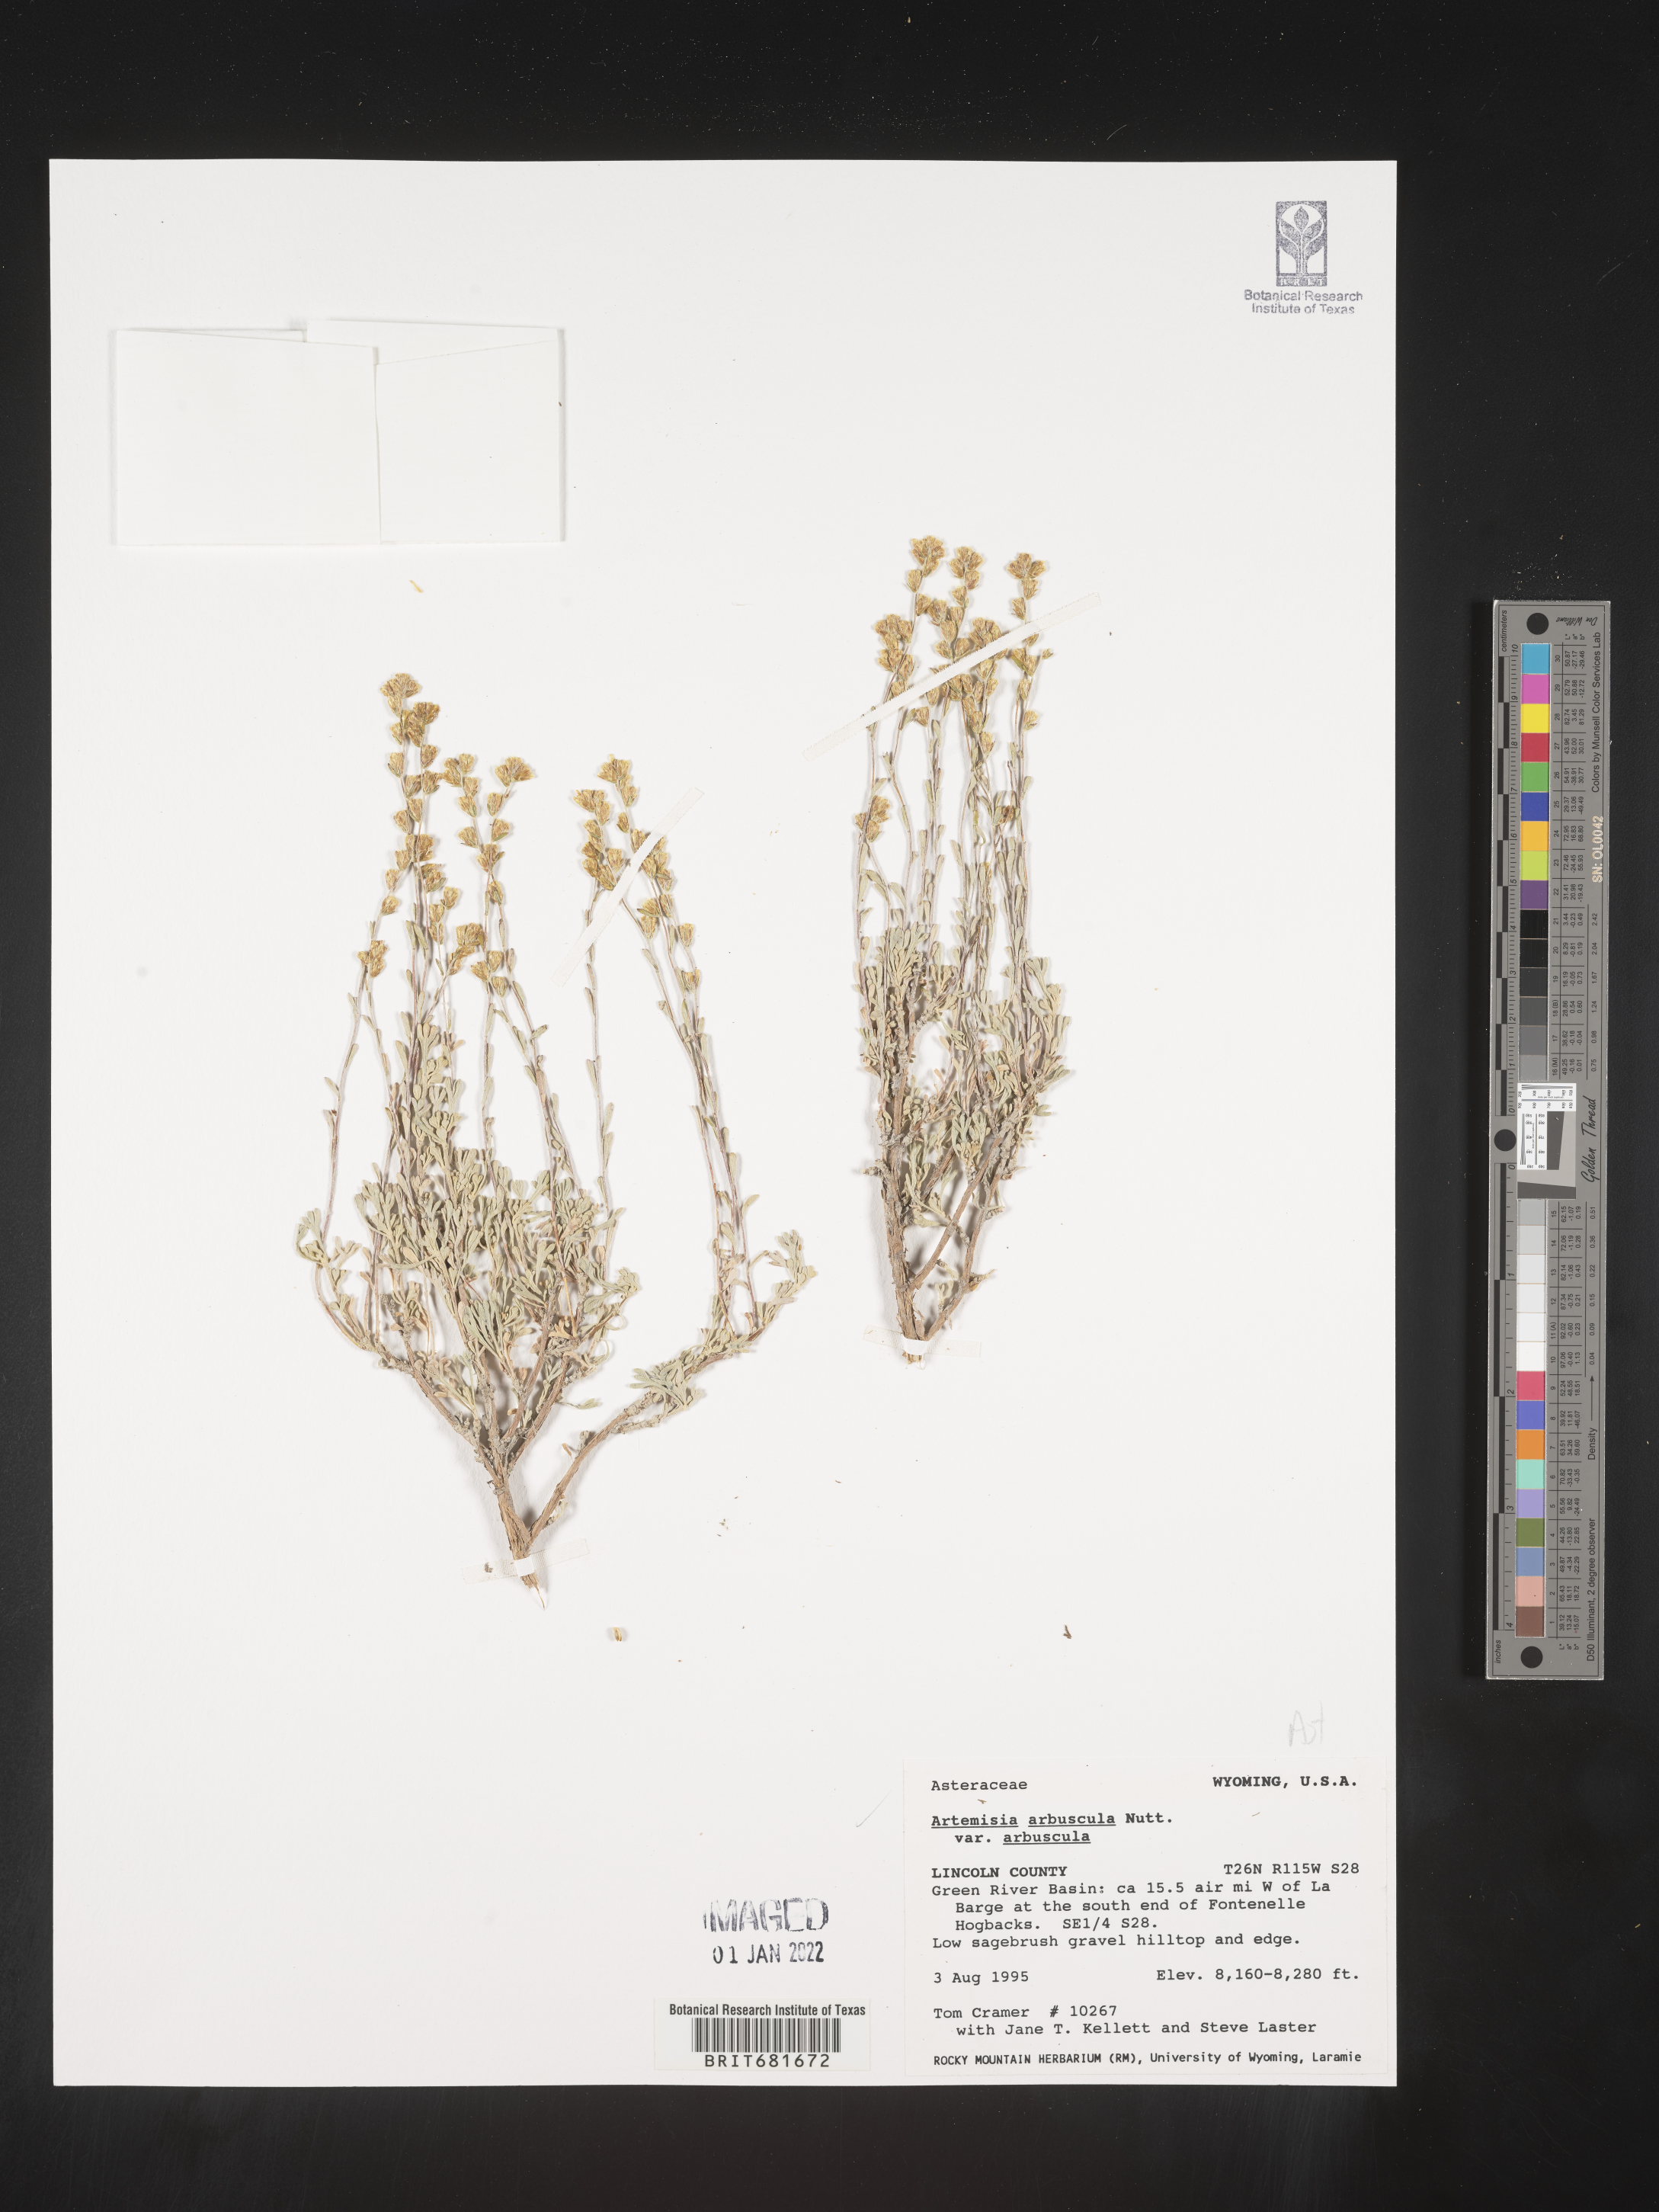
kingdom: Plantae
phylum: Tracheophyta
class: Magnoliopsida
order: Asterales
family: Asteraceae
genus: Artemisia
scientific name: Artemisia arbuscula
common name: Sagebrush
